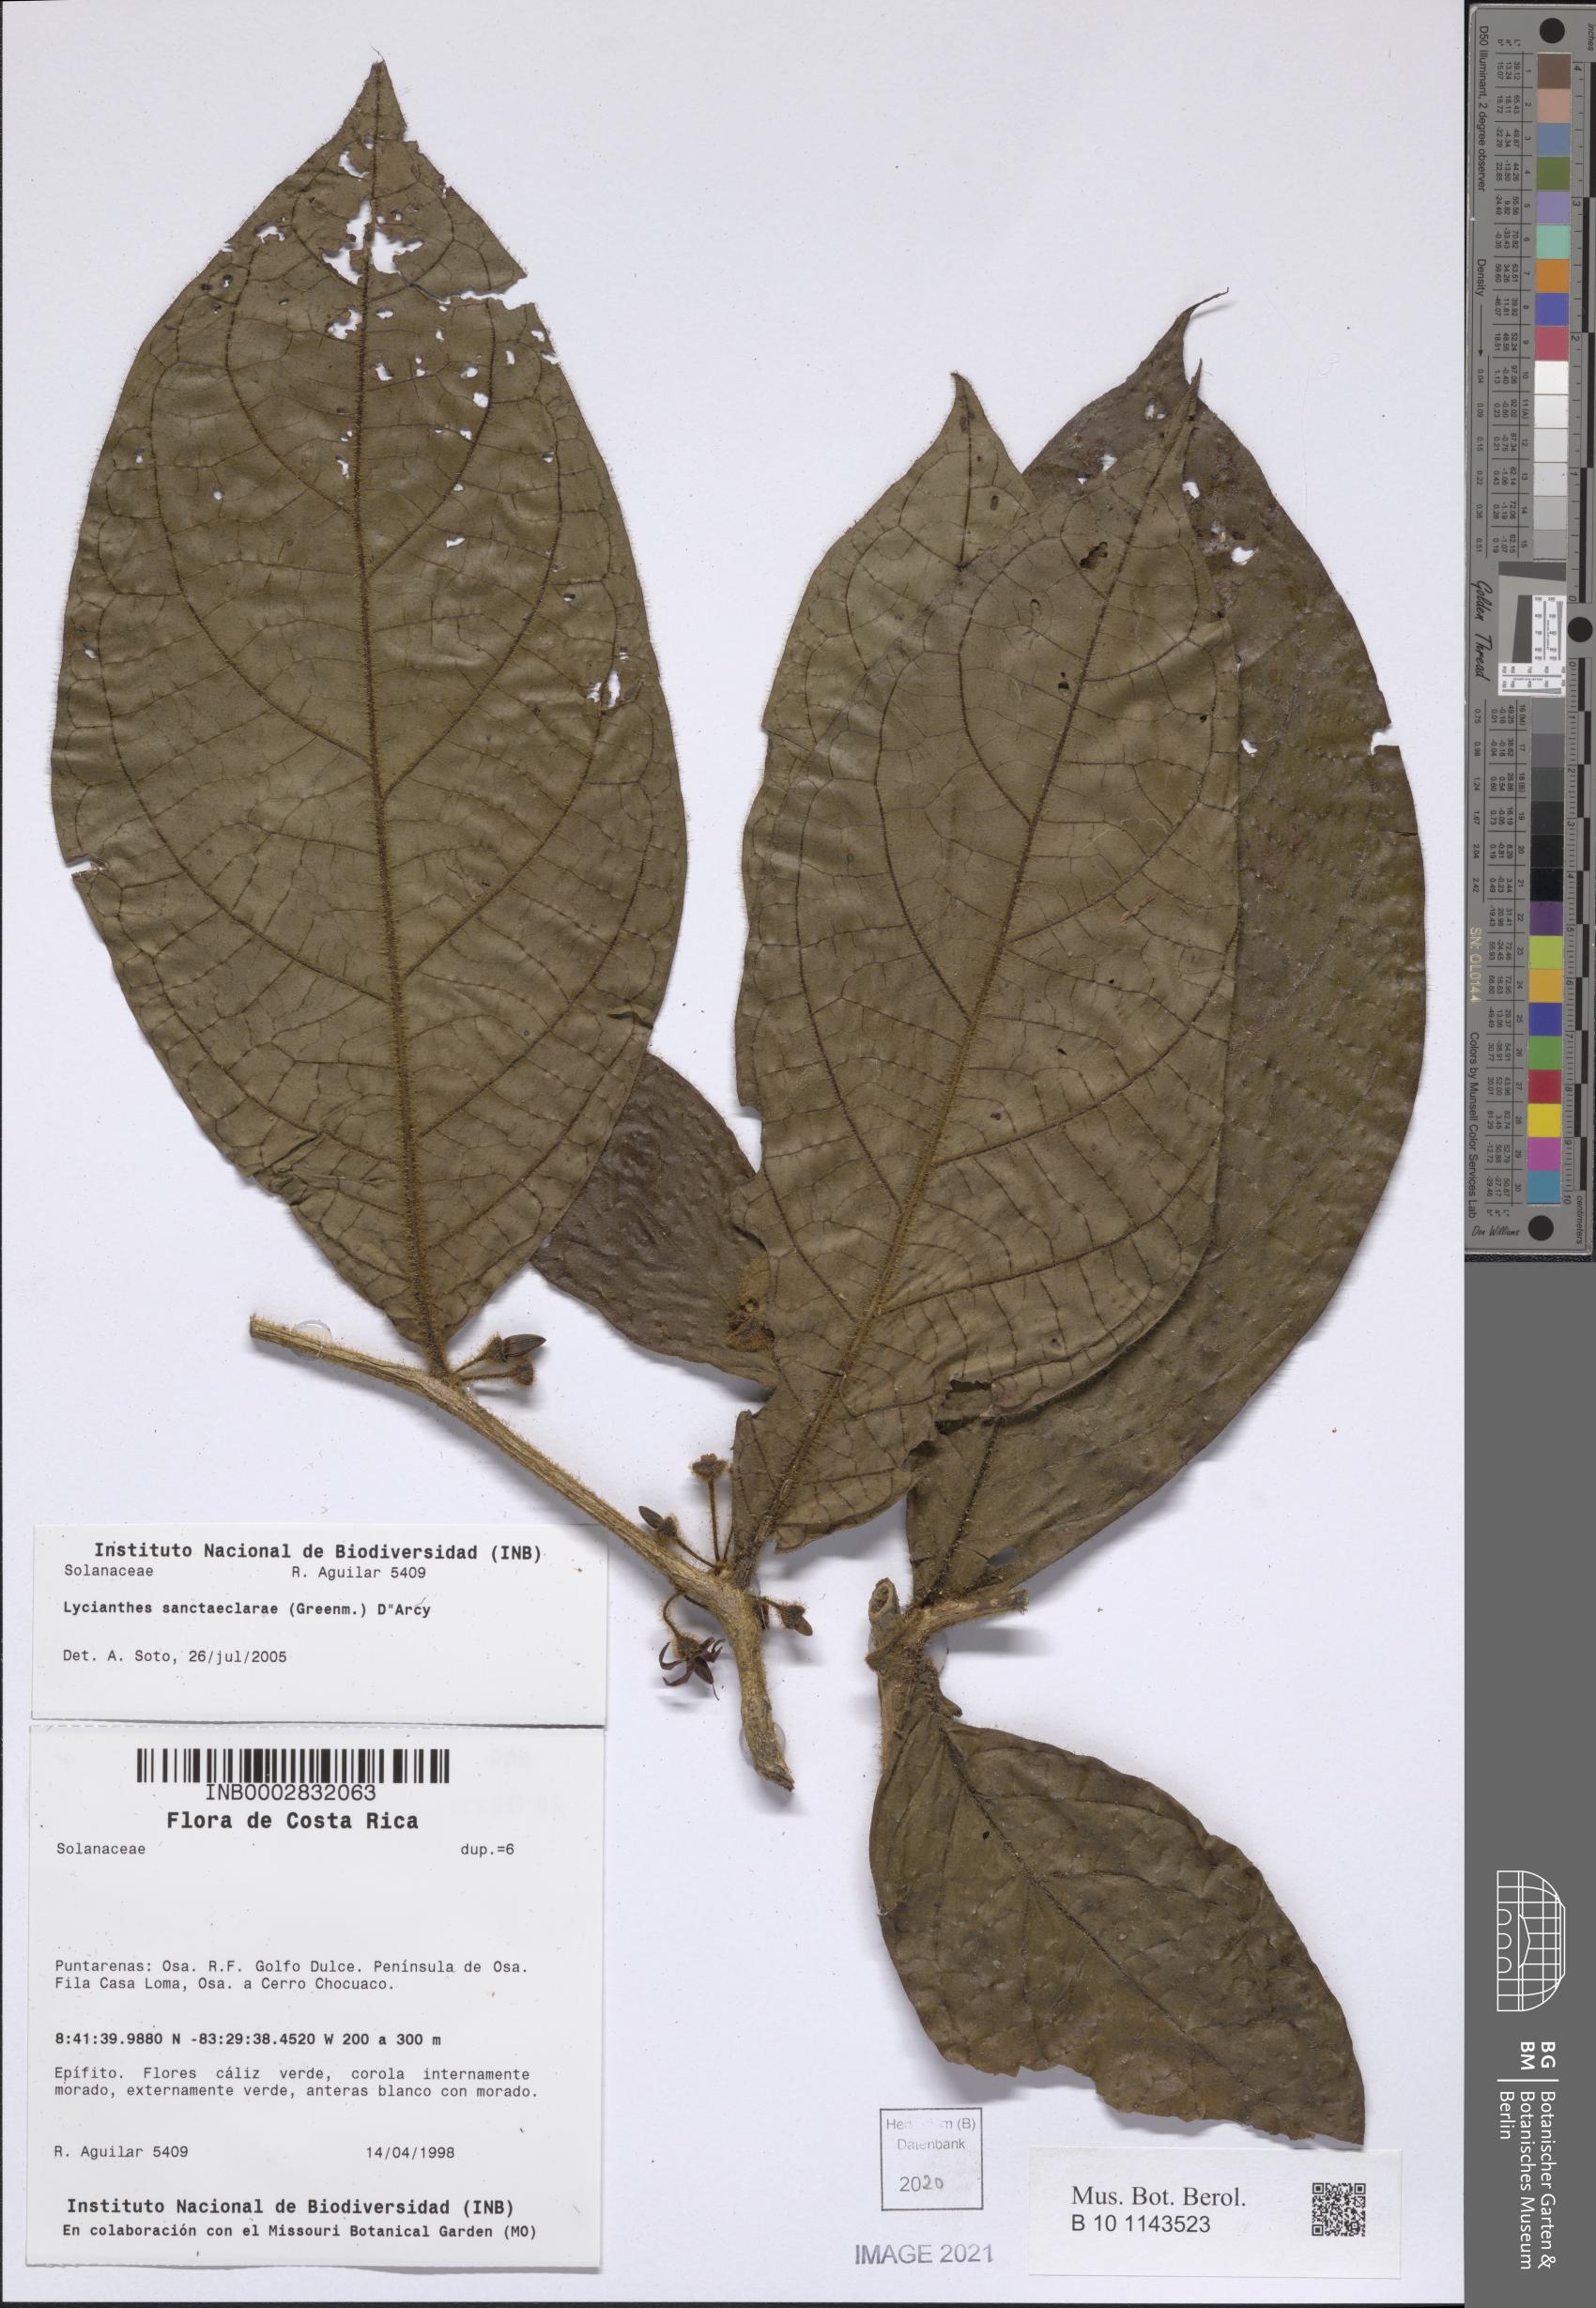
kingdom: Plantae
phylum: Tracheophyta
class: Magnoliopsida
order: Solanales
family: Solanaceae
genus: Lycianthes
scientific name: Lycianthes sanctaeclarae
